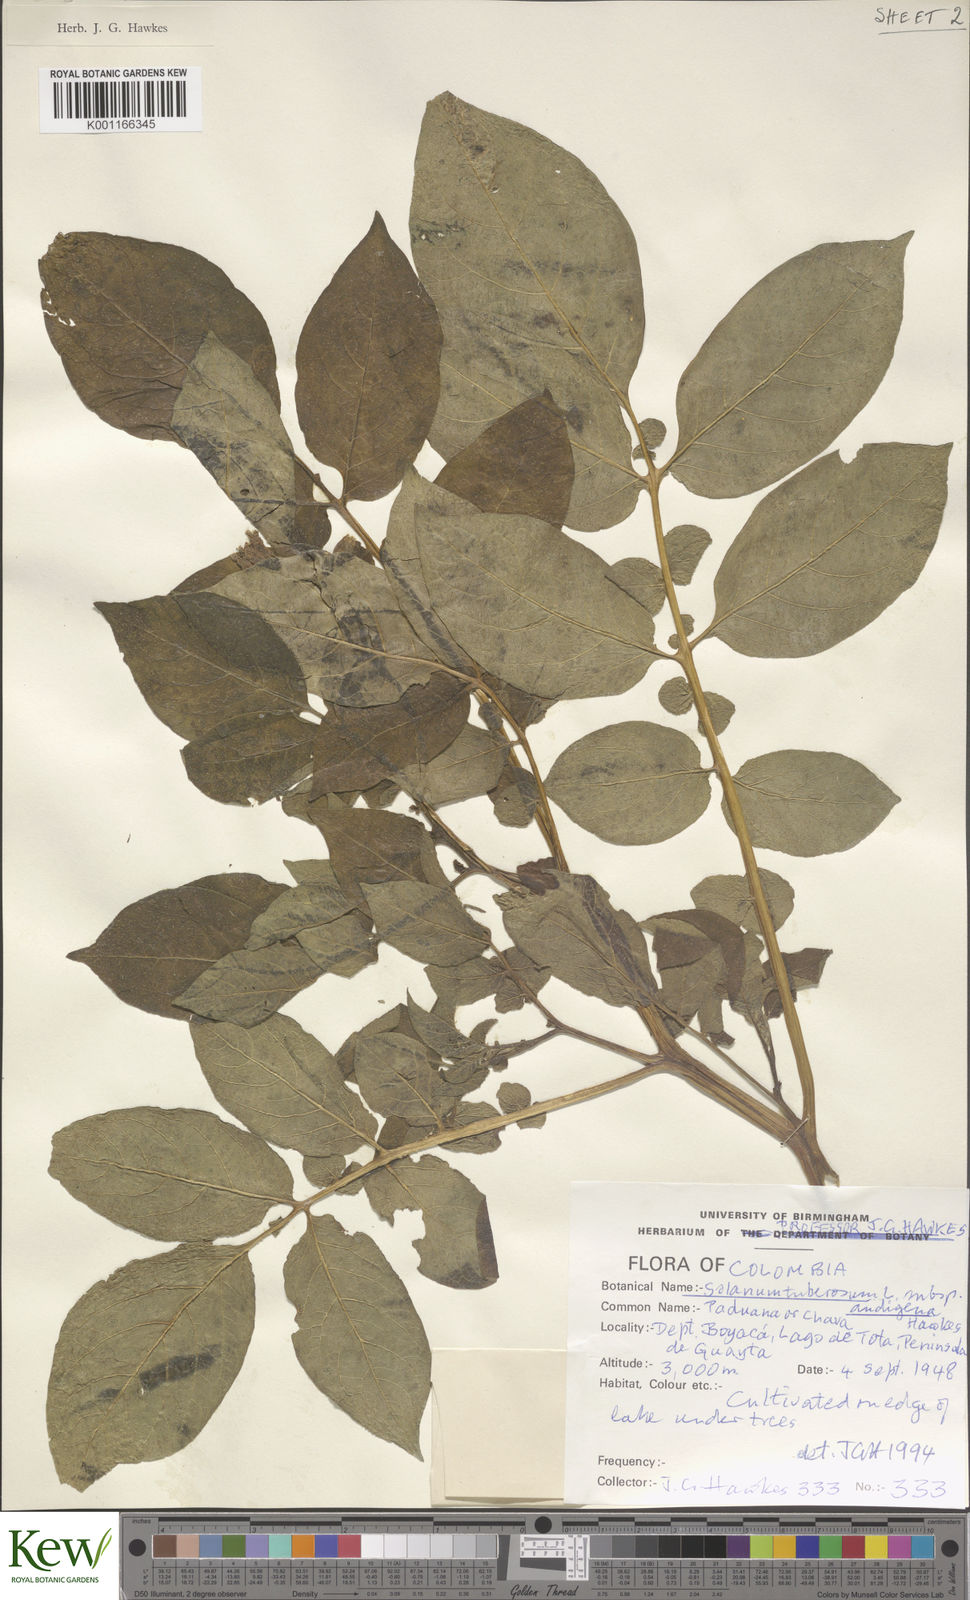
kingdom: Plantae
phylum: Tracheophyta
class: Magnoliopsida
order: Solanales
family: Solanaceae
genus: Solanum
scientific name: Solanum tuberosum
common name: Potato
